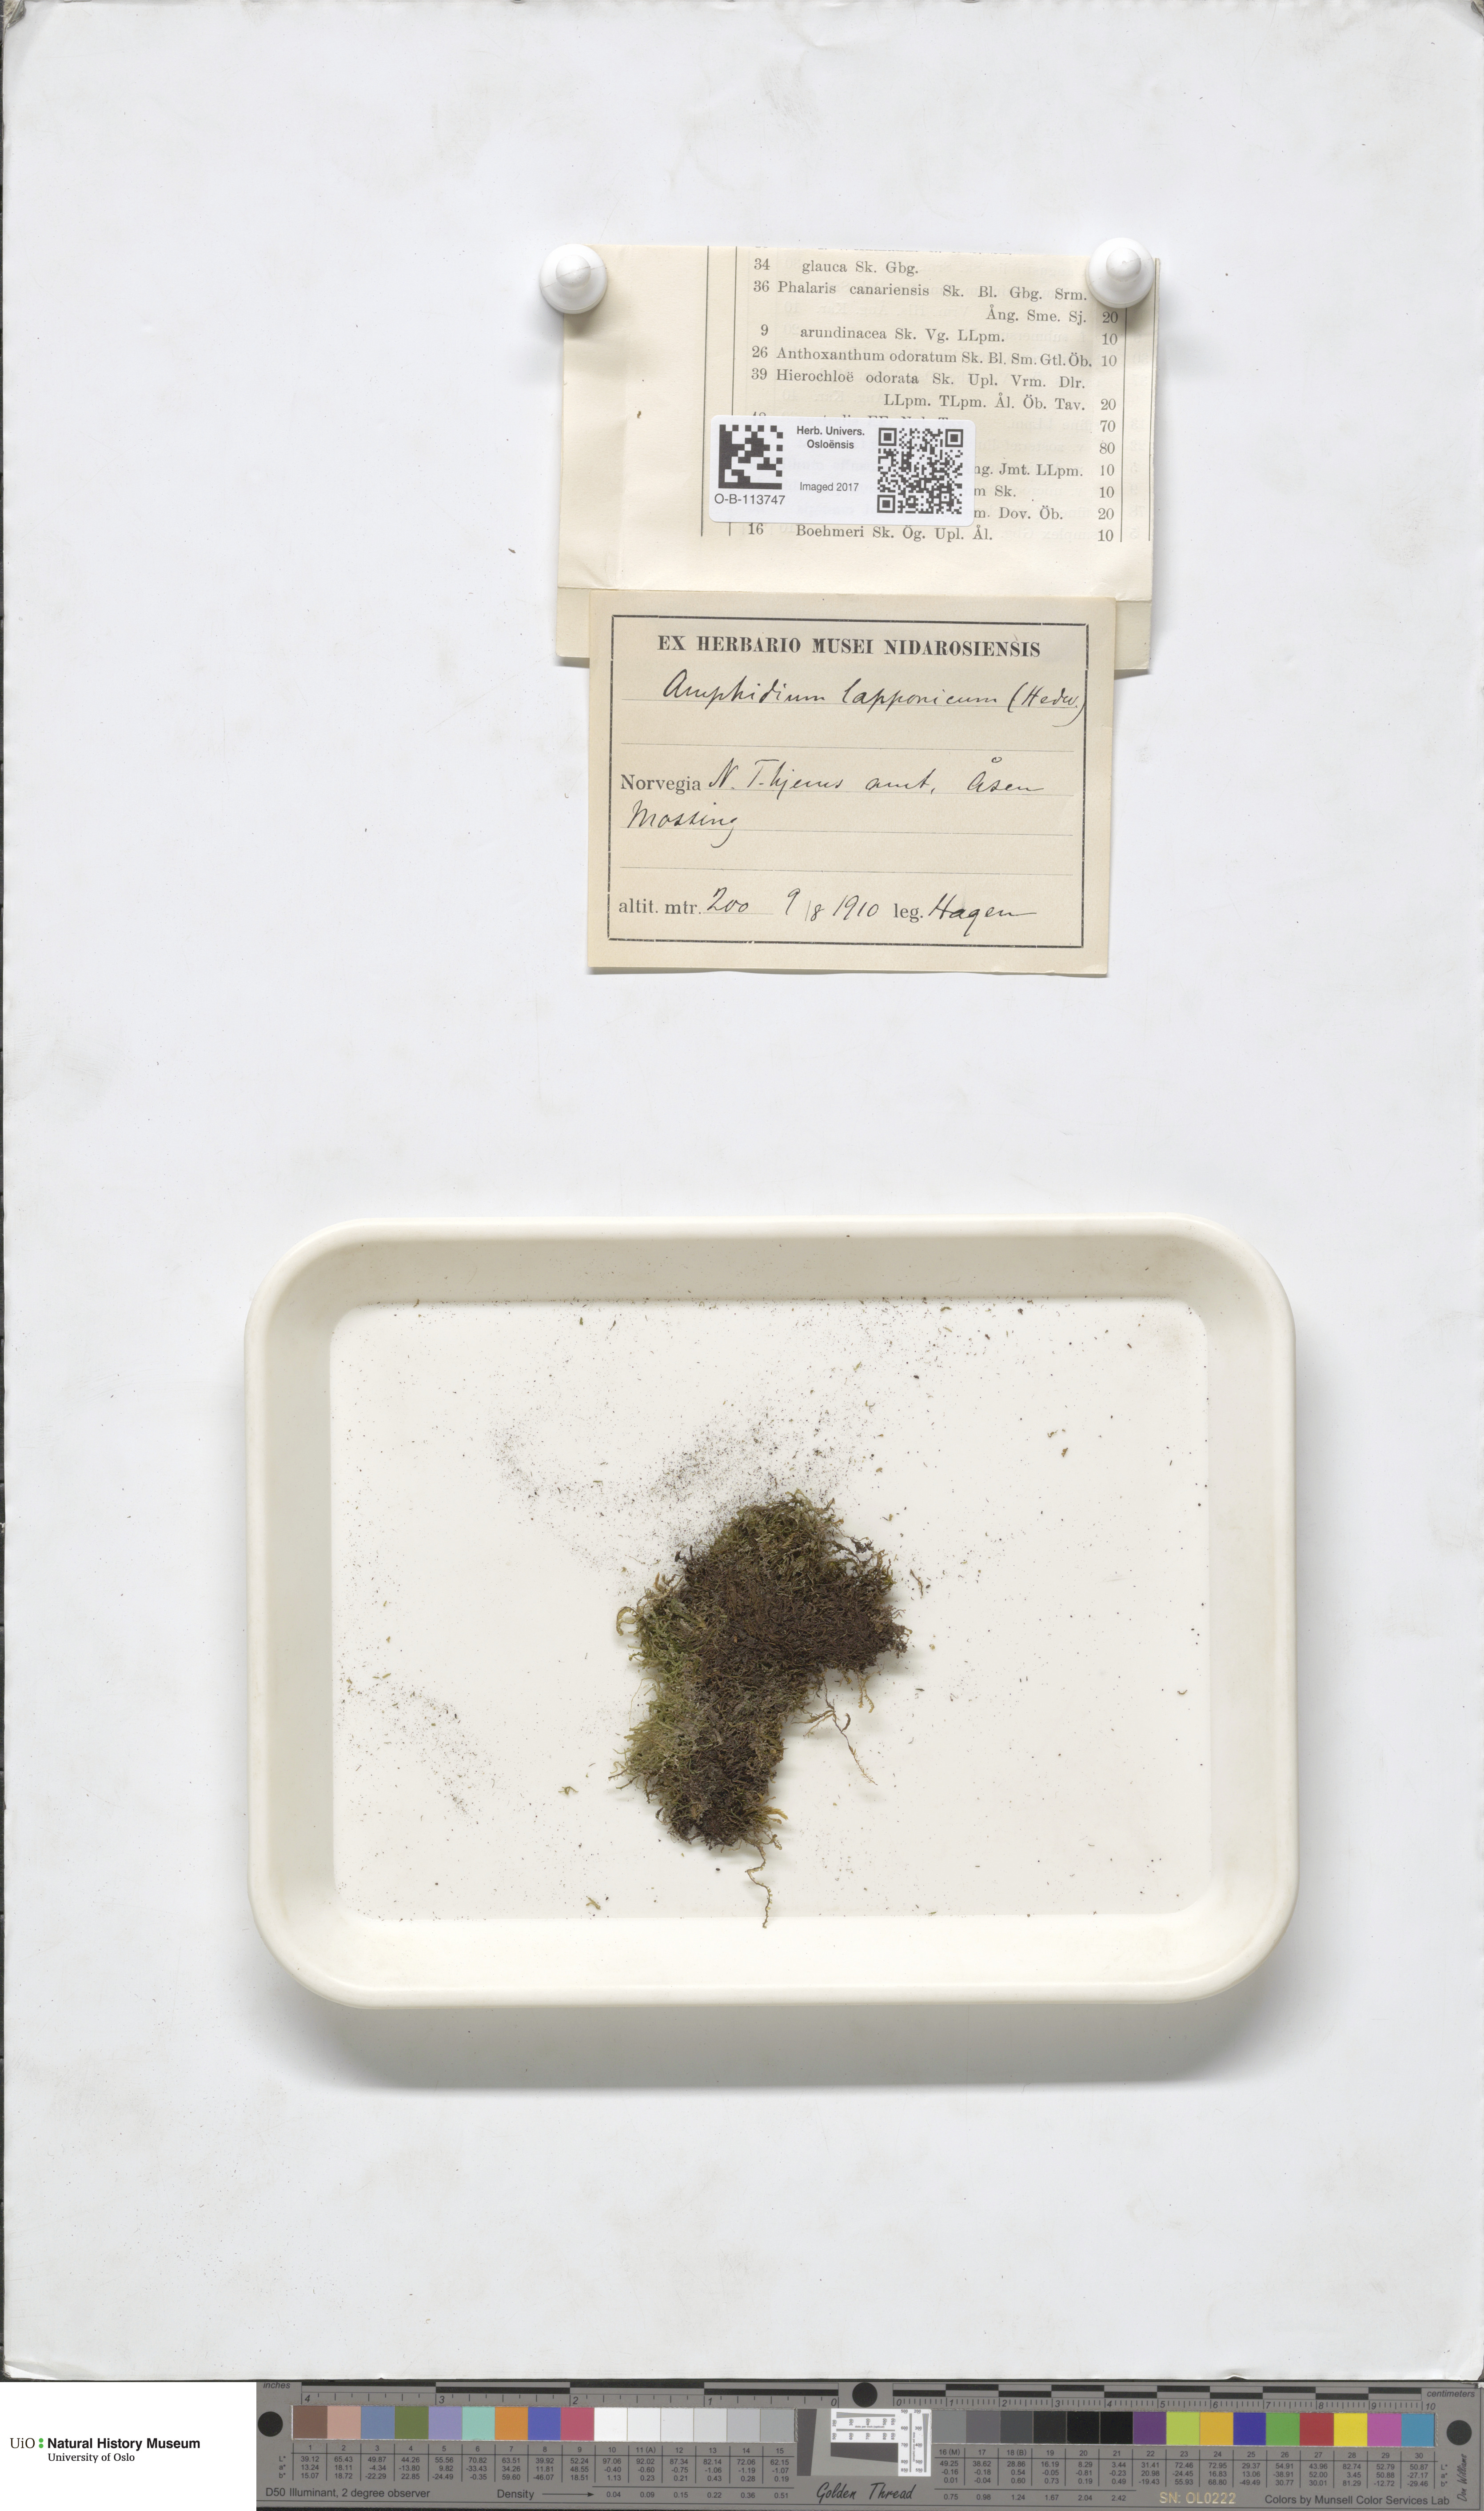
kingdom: Plantae
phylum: Bryophyta
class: Bryopsida
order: Dicranales
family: Amphidiaceae
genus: Amphidium
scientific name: Amphidium lapponicum
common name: Lapland yoke moss
